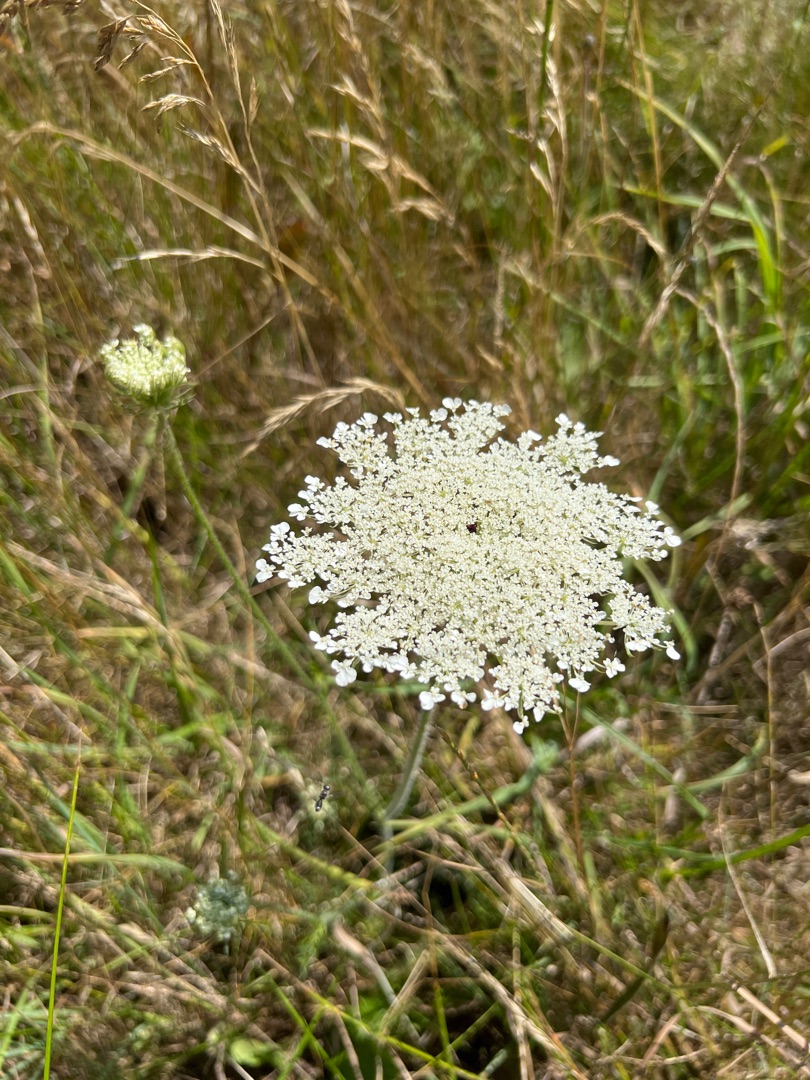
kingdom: Plantae
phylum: Tracheophyta
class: Magnoliopsida
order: Apiales
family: Apiaceae
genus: Daucus
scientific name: Daucus carota
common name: Vild gulerod
